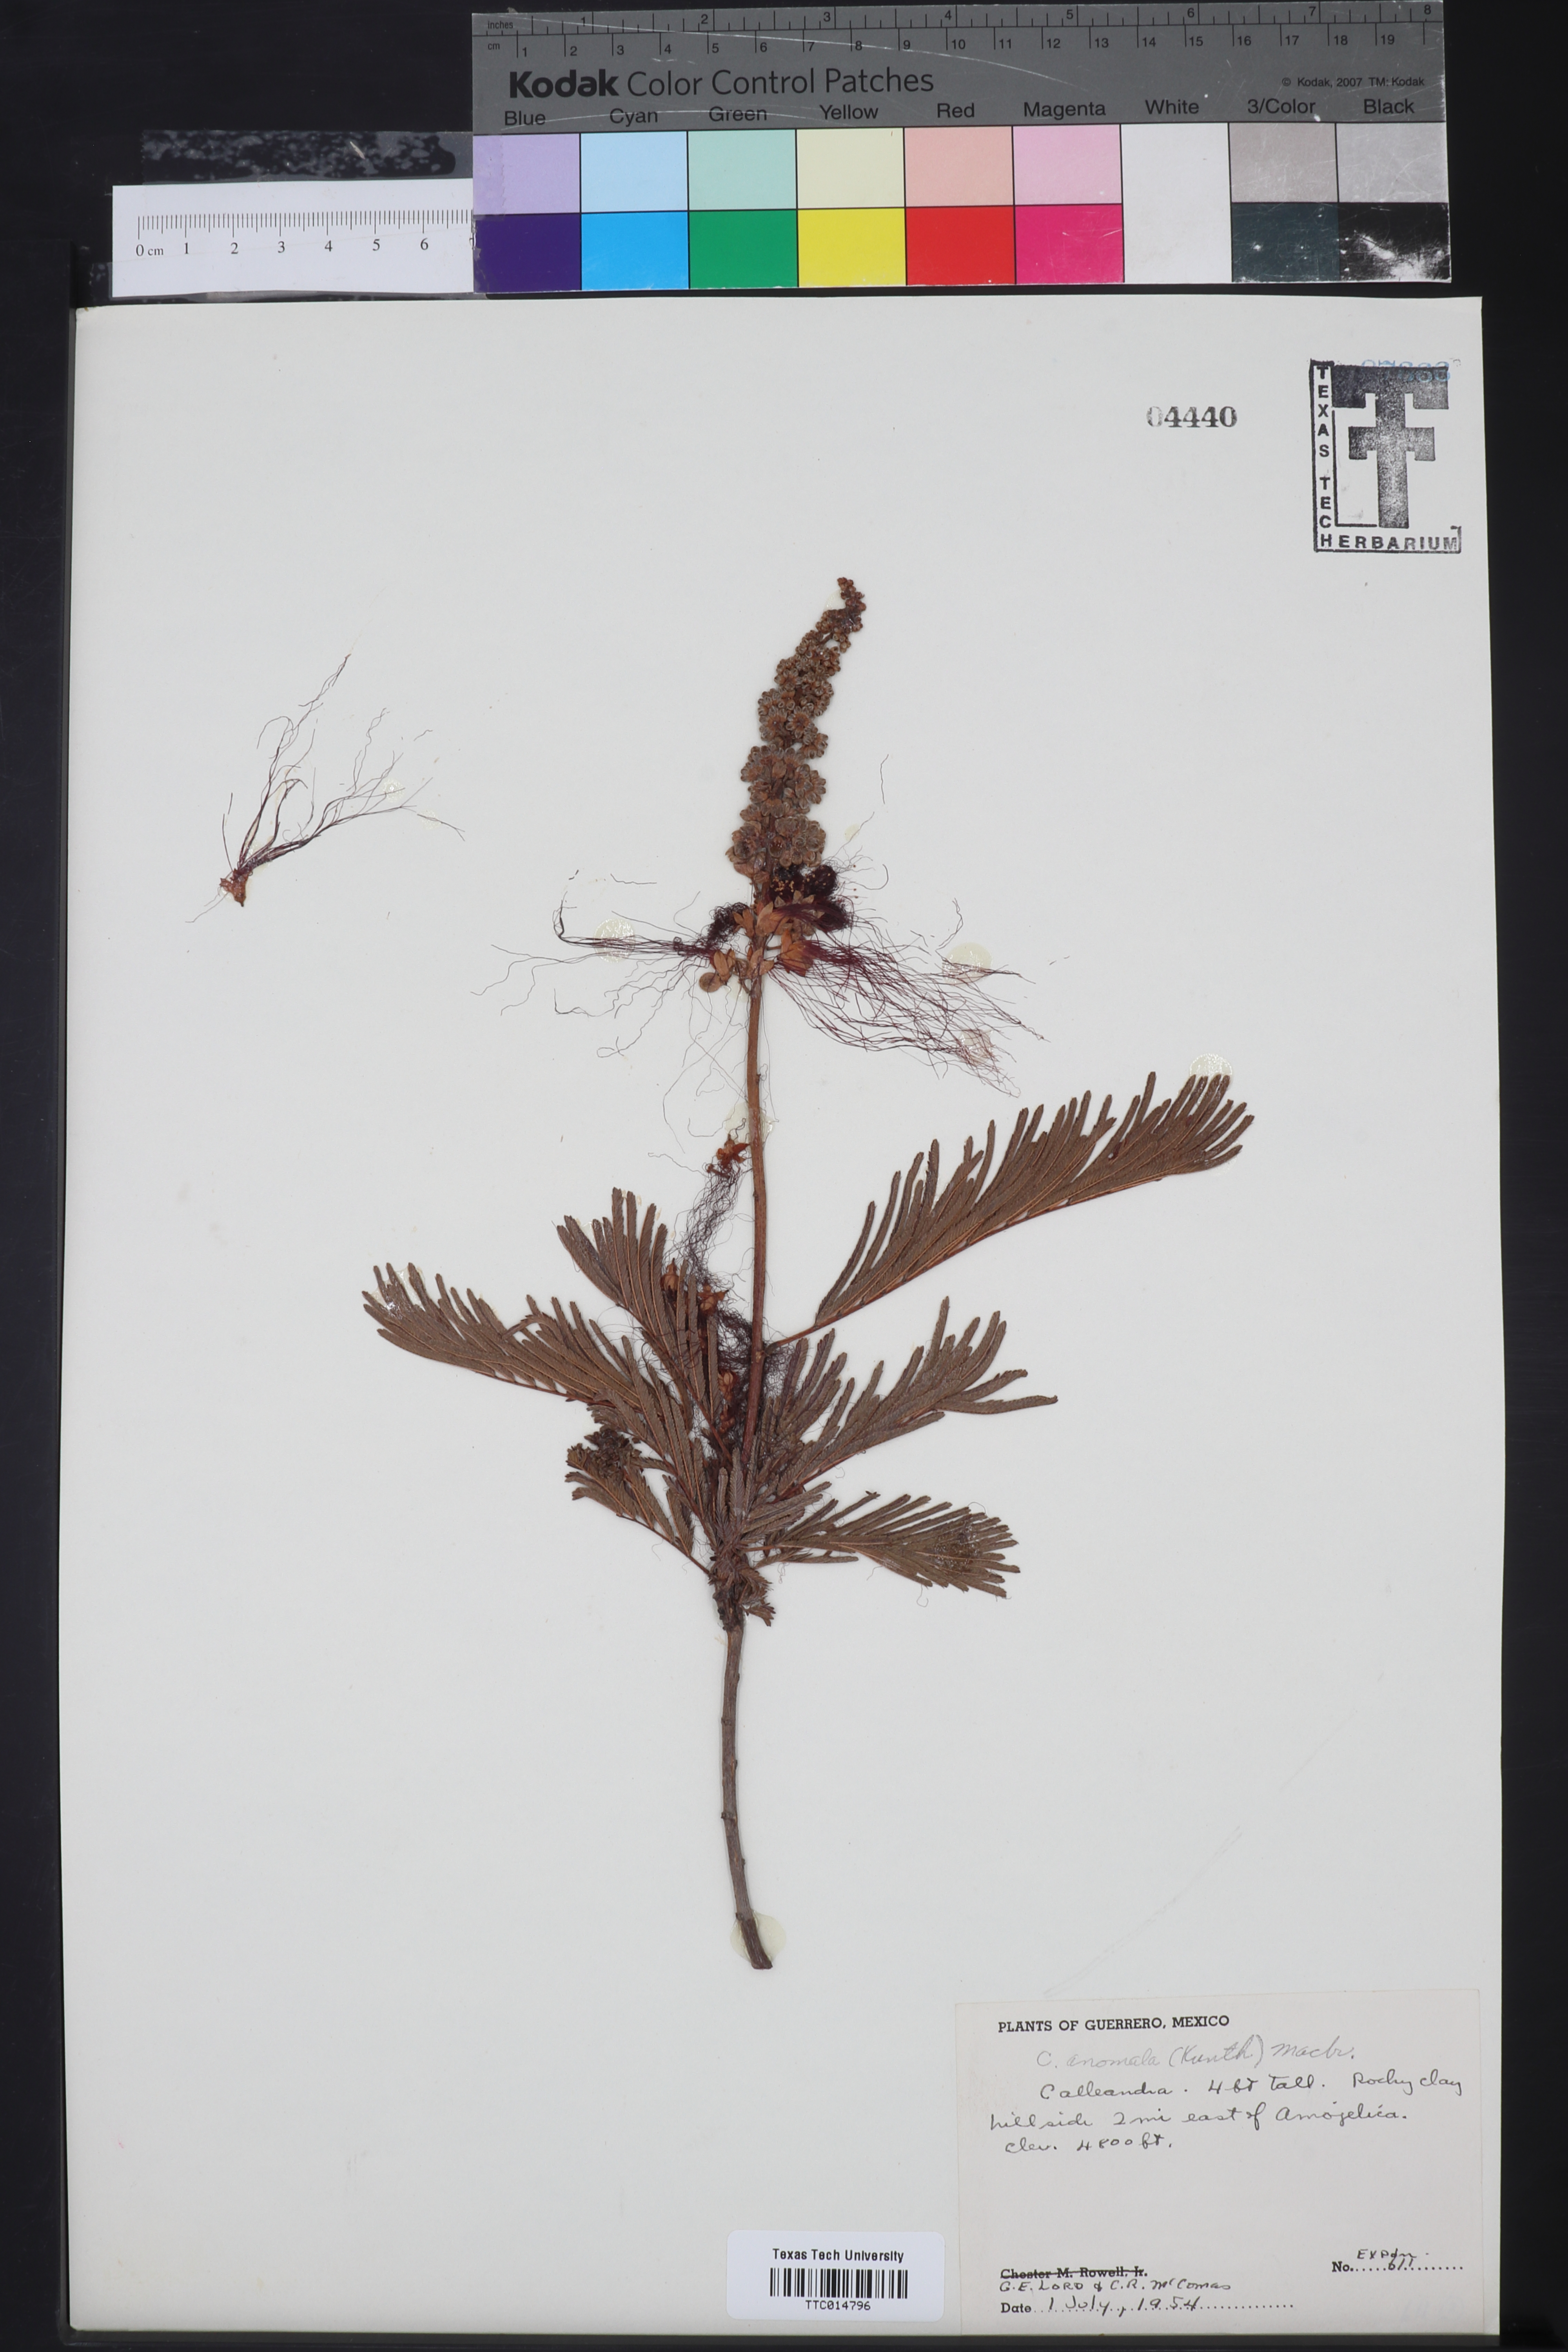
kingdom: Plantae
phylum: Tracheophyta
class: Magnoliopsida
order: Fabales
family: Fabaceae
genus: Calliandra
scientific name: Calliandra houstoniana
